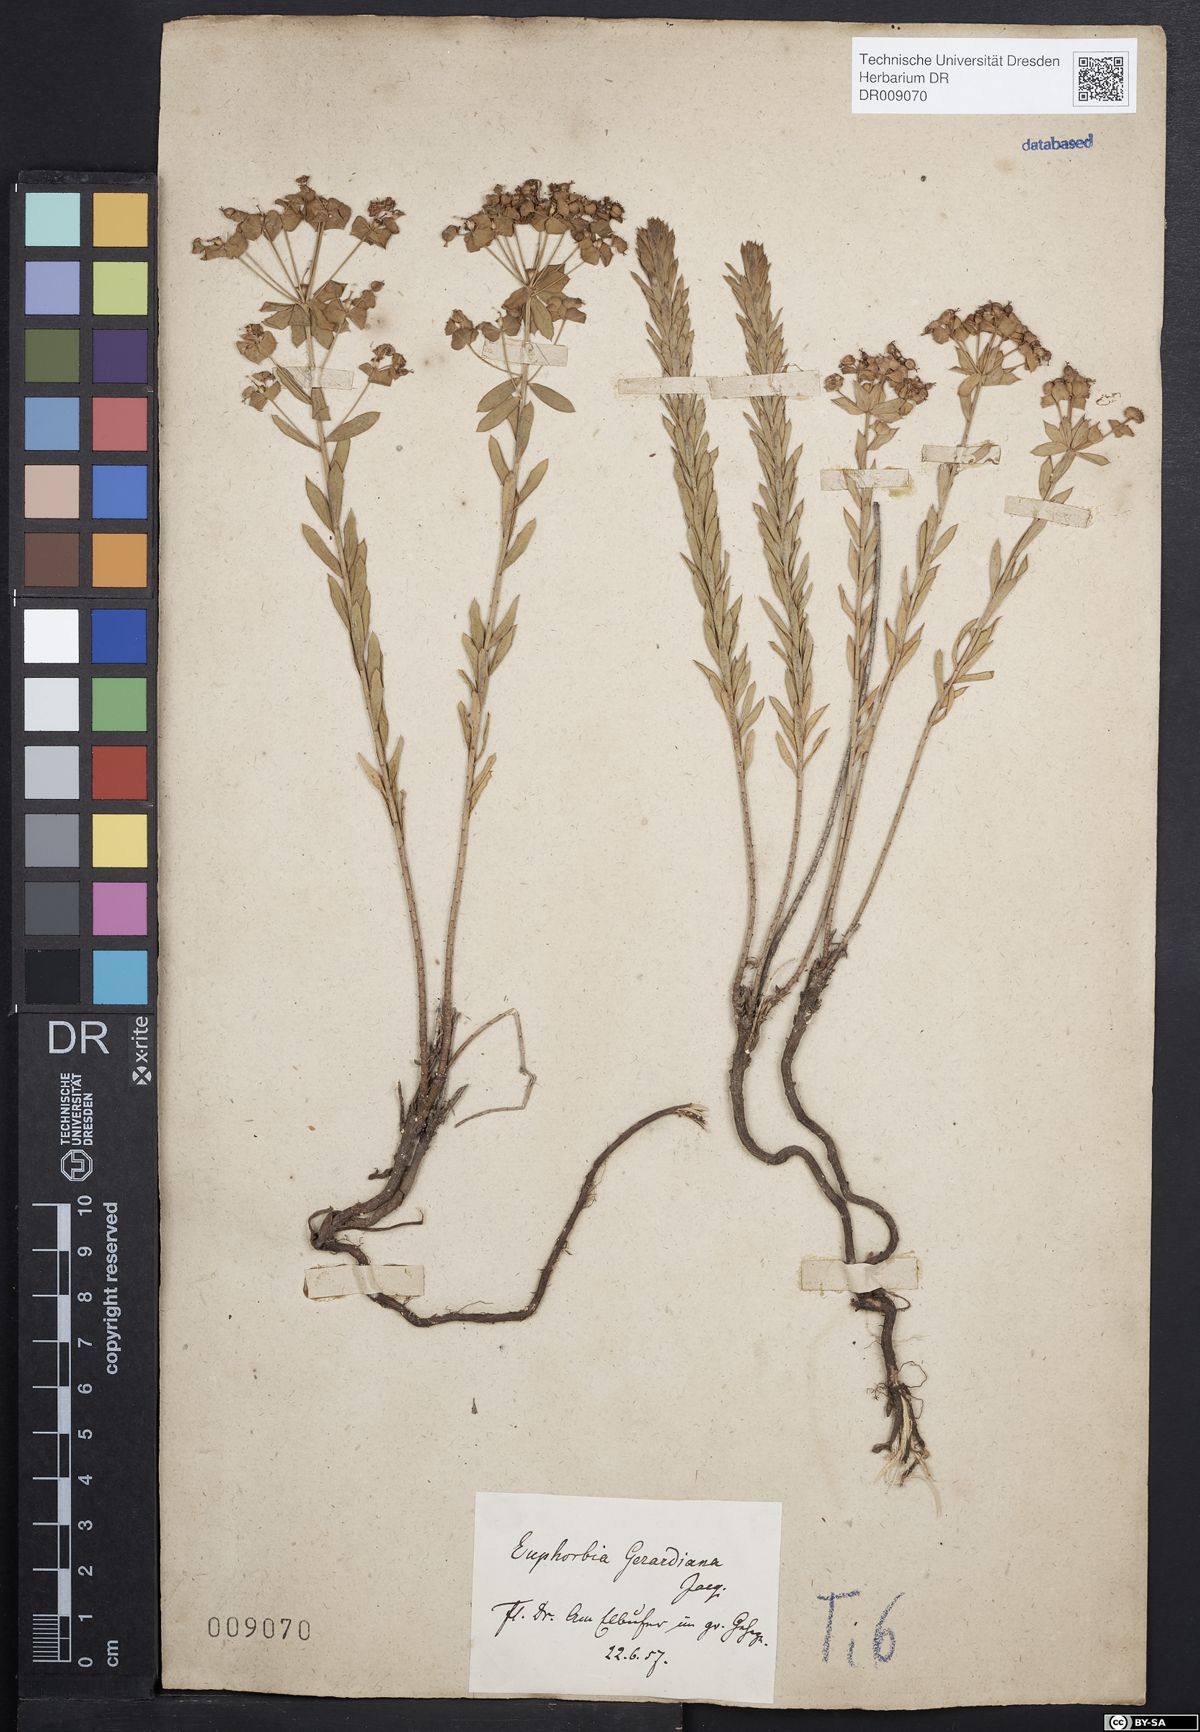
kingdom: Plantae
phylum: Tracheophyta
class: Magnoliopsida
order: Malpighiales
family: Euphorbiaceae
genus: Euphorbia
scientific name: Euphorbia seguieriana
